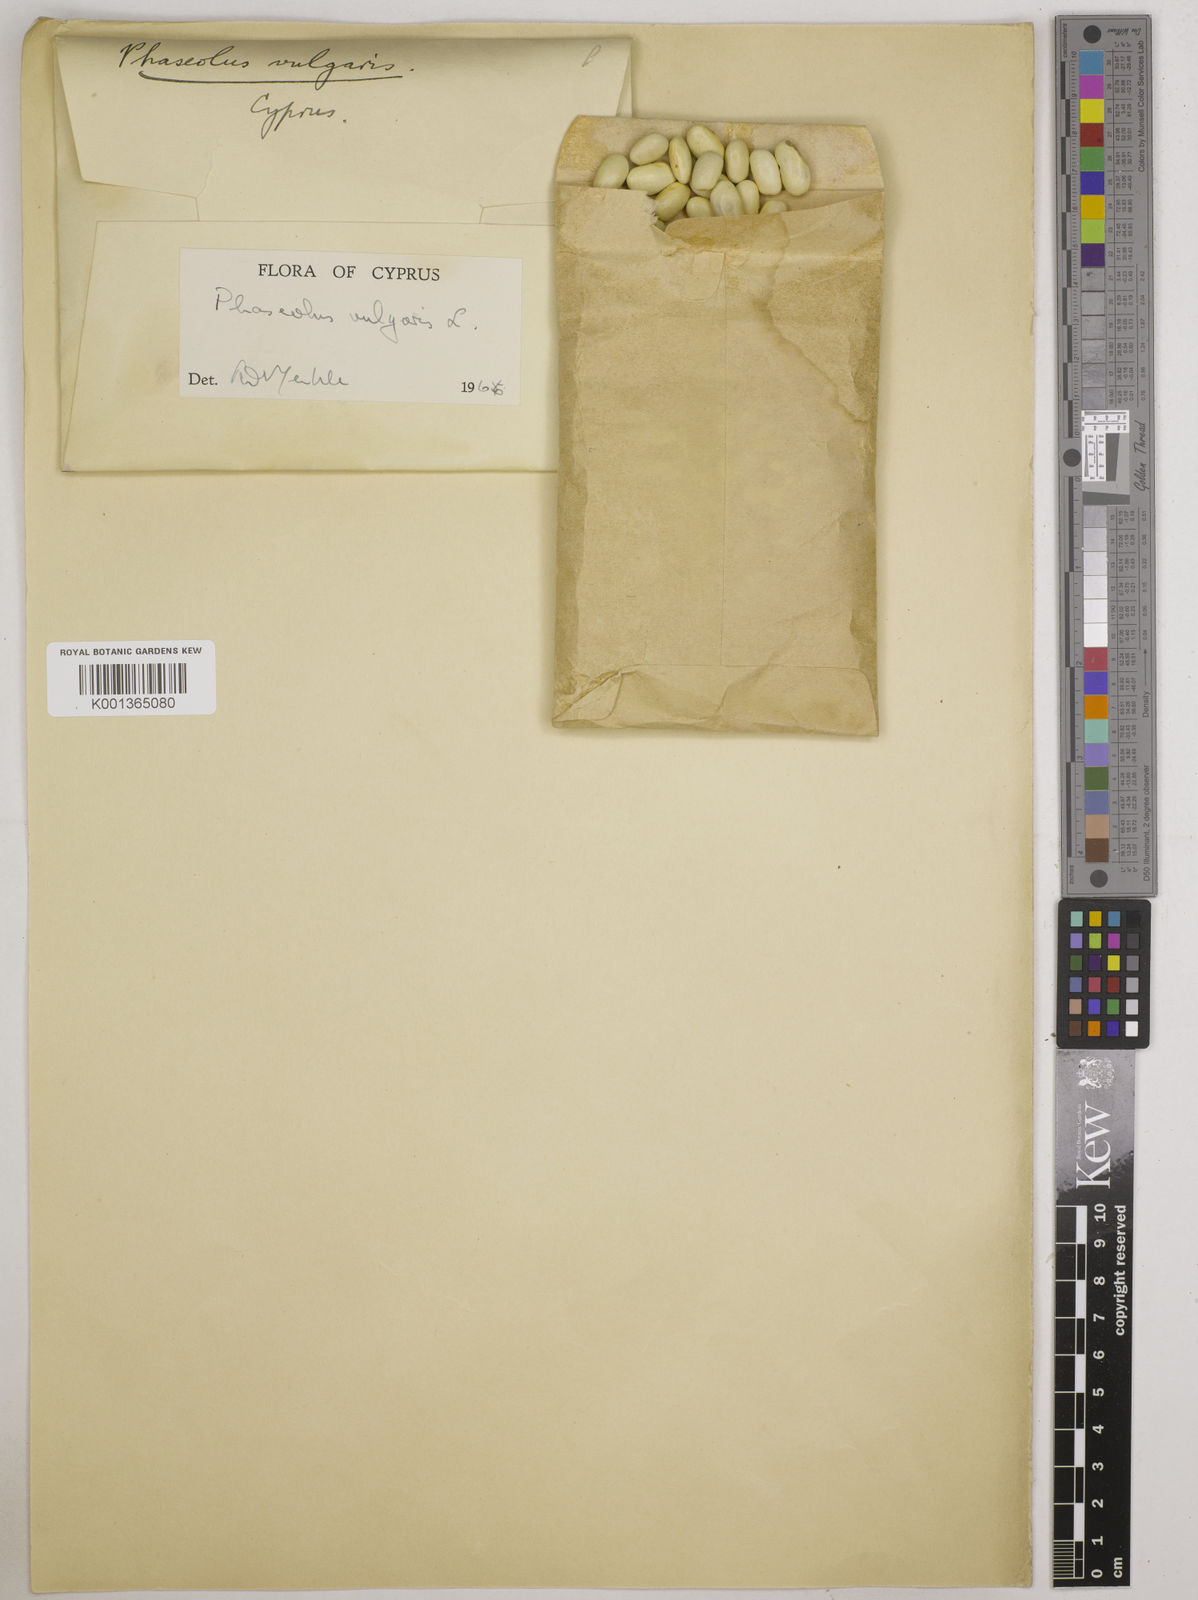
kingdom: Plantae
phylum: Tracheophyta
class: Magnoliopsida
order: Fabales
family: Fabaceae
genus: Phaseolus
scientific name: Phaseolus vulgaris
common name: Bean
